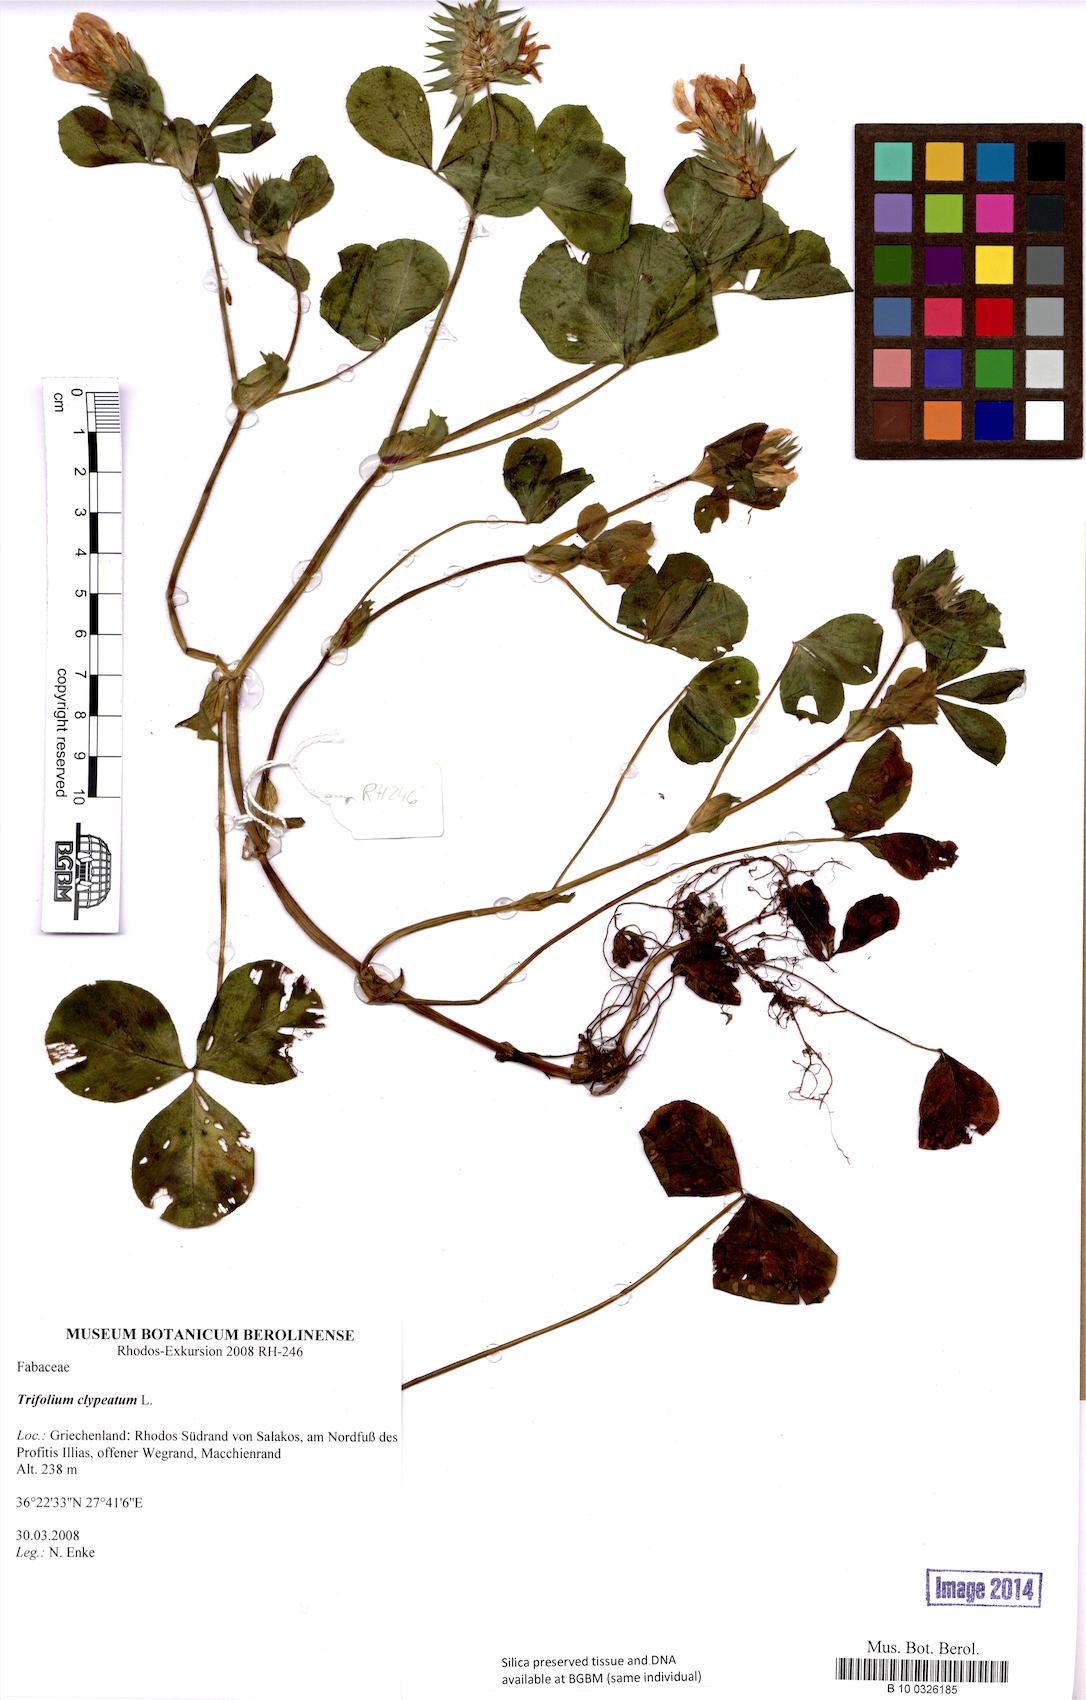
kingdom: Plantae
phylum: Tracheophyta
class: Magnoliopsida
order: Fabales
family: Fabaceae
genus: Trifolium
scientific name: Trifolium clypeatum
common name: Shield clover
